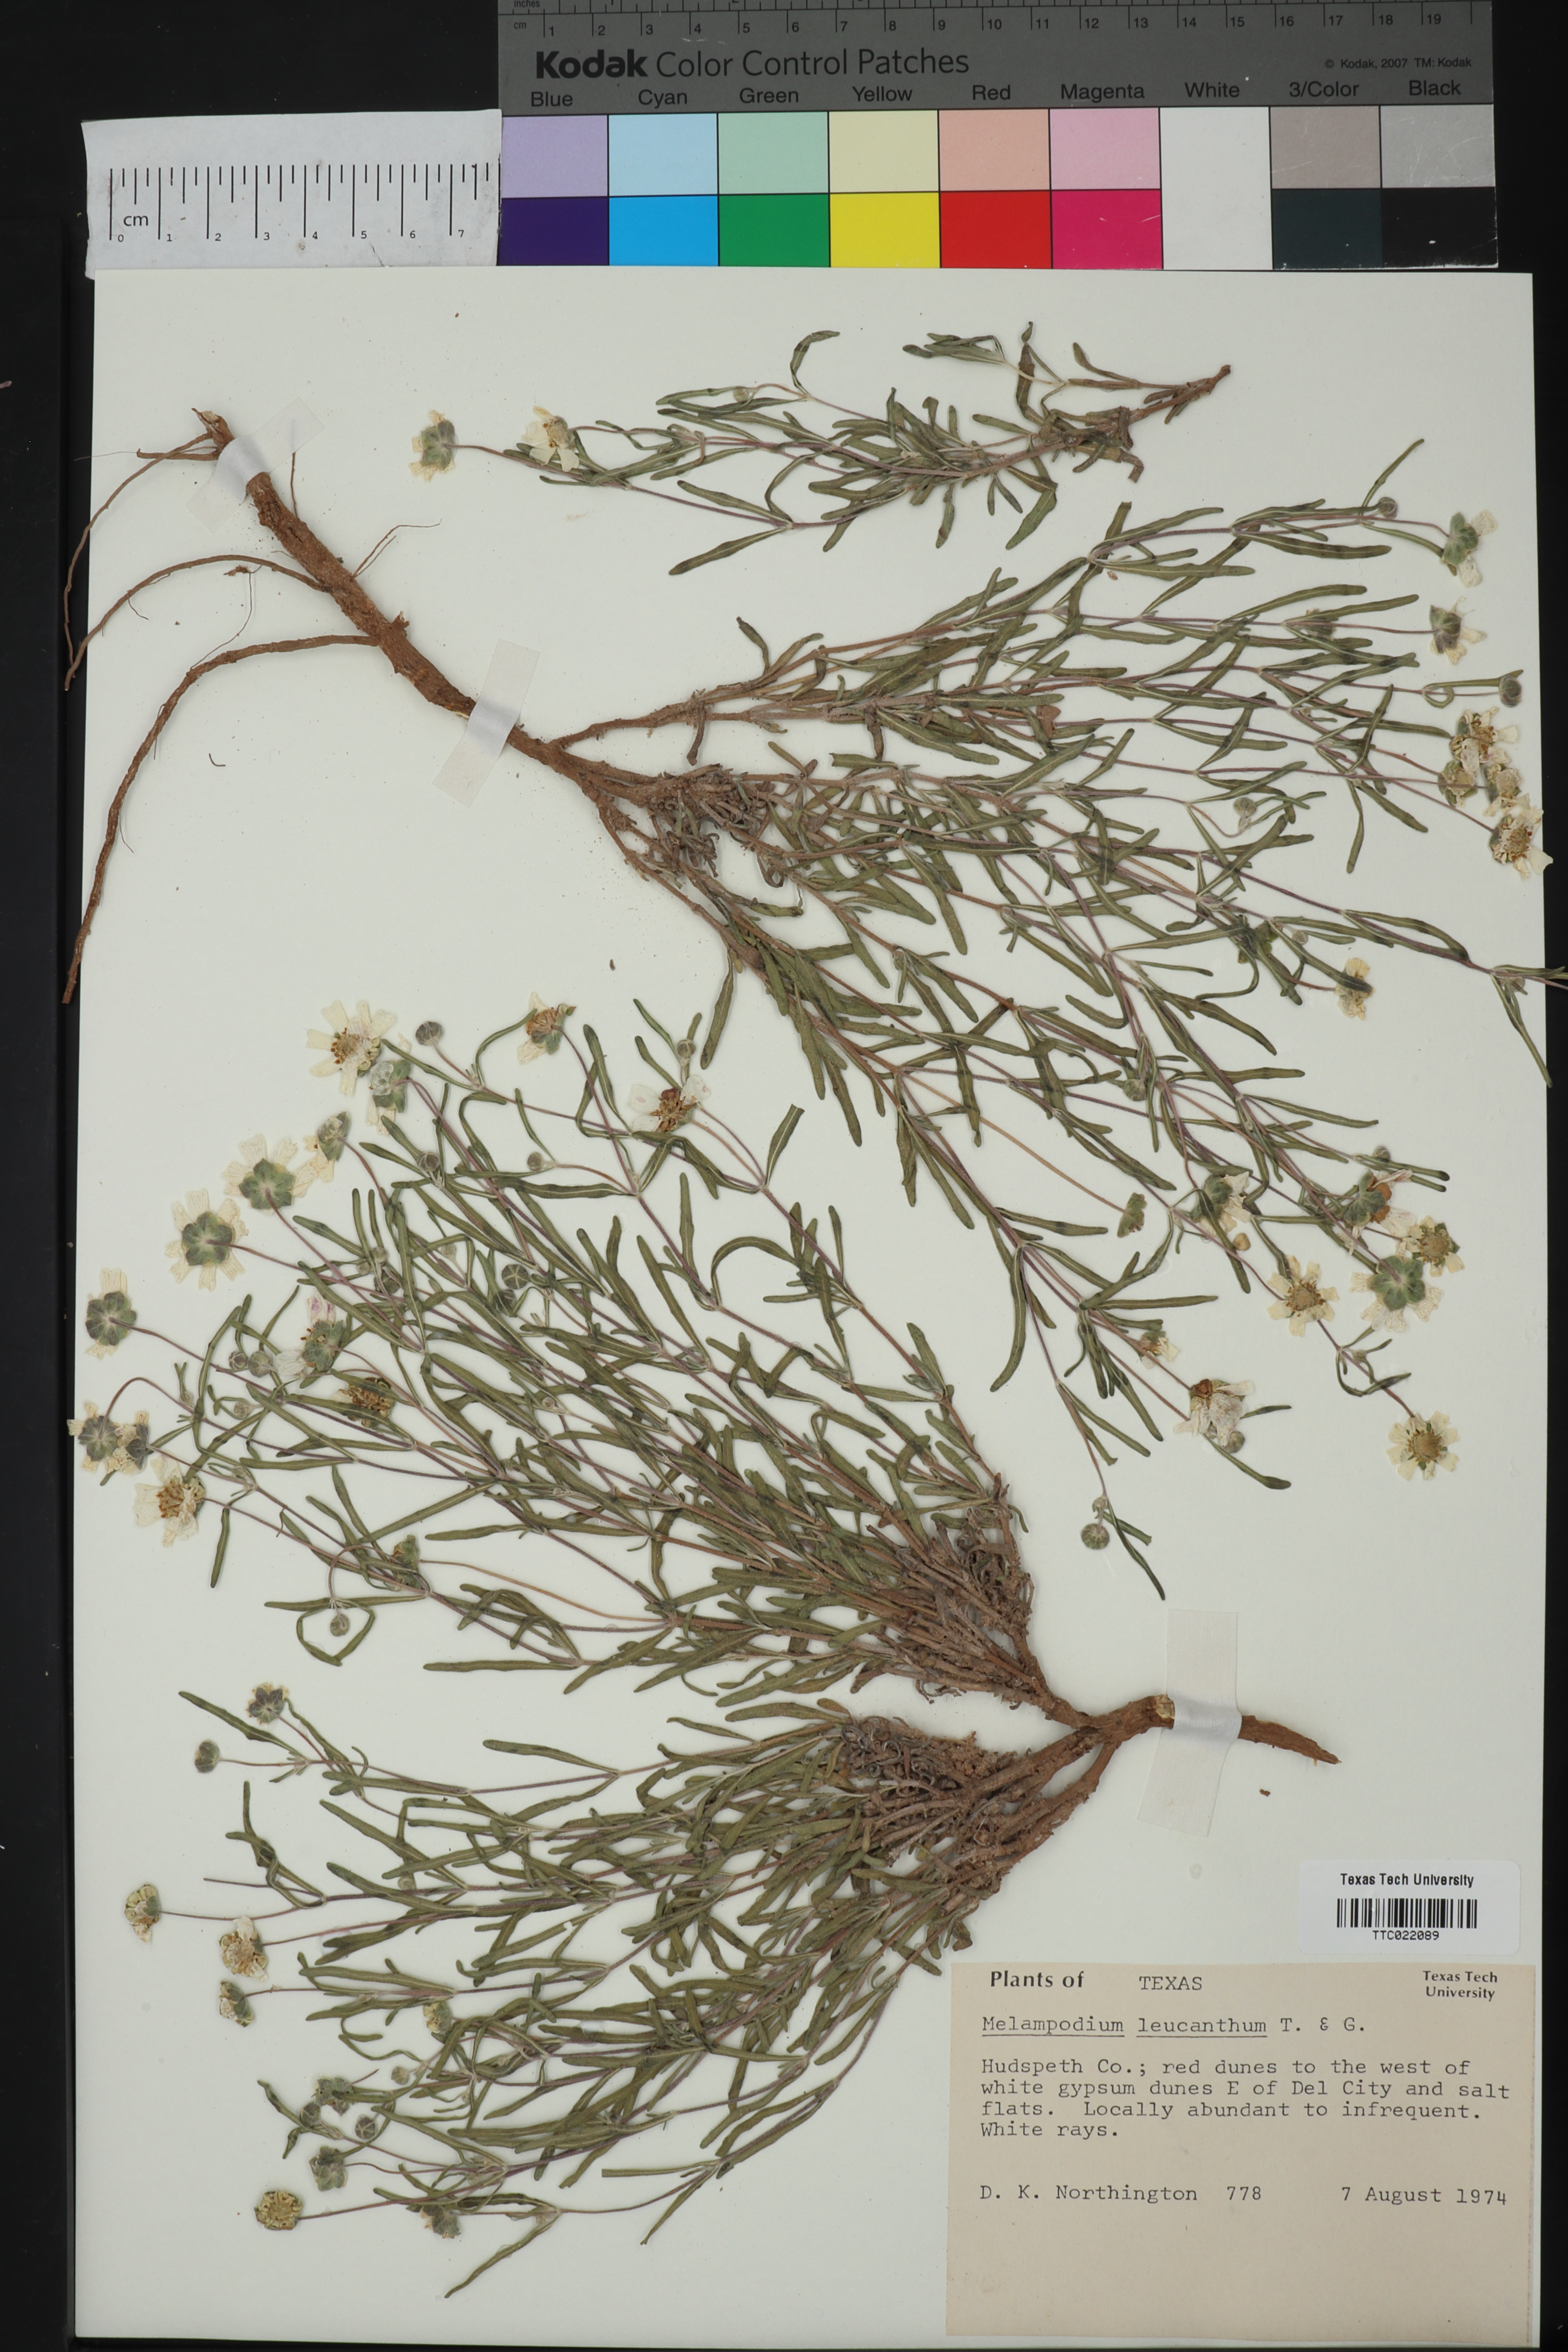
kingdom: Plantae
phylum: Tracheophyta
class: Magnoliopsida
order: Asterales
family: Asteraceae
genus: Melampodium
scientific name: Melampodium leucanthum
